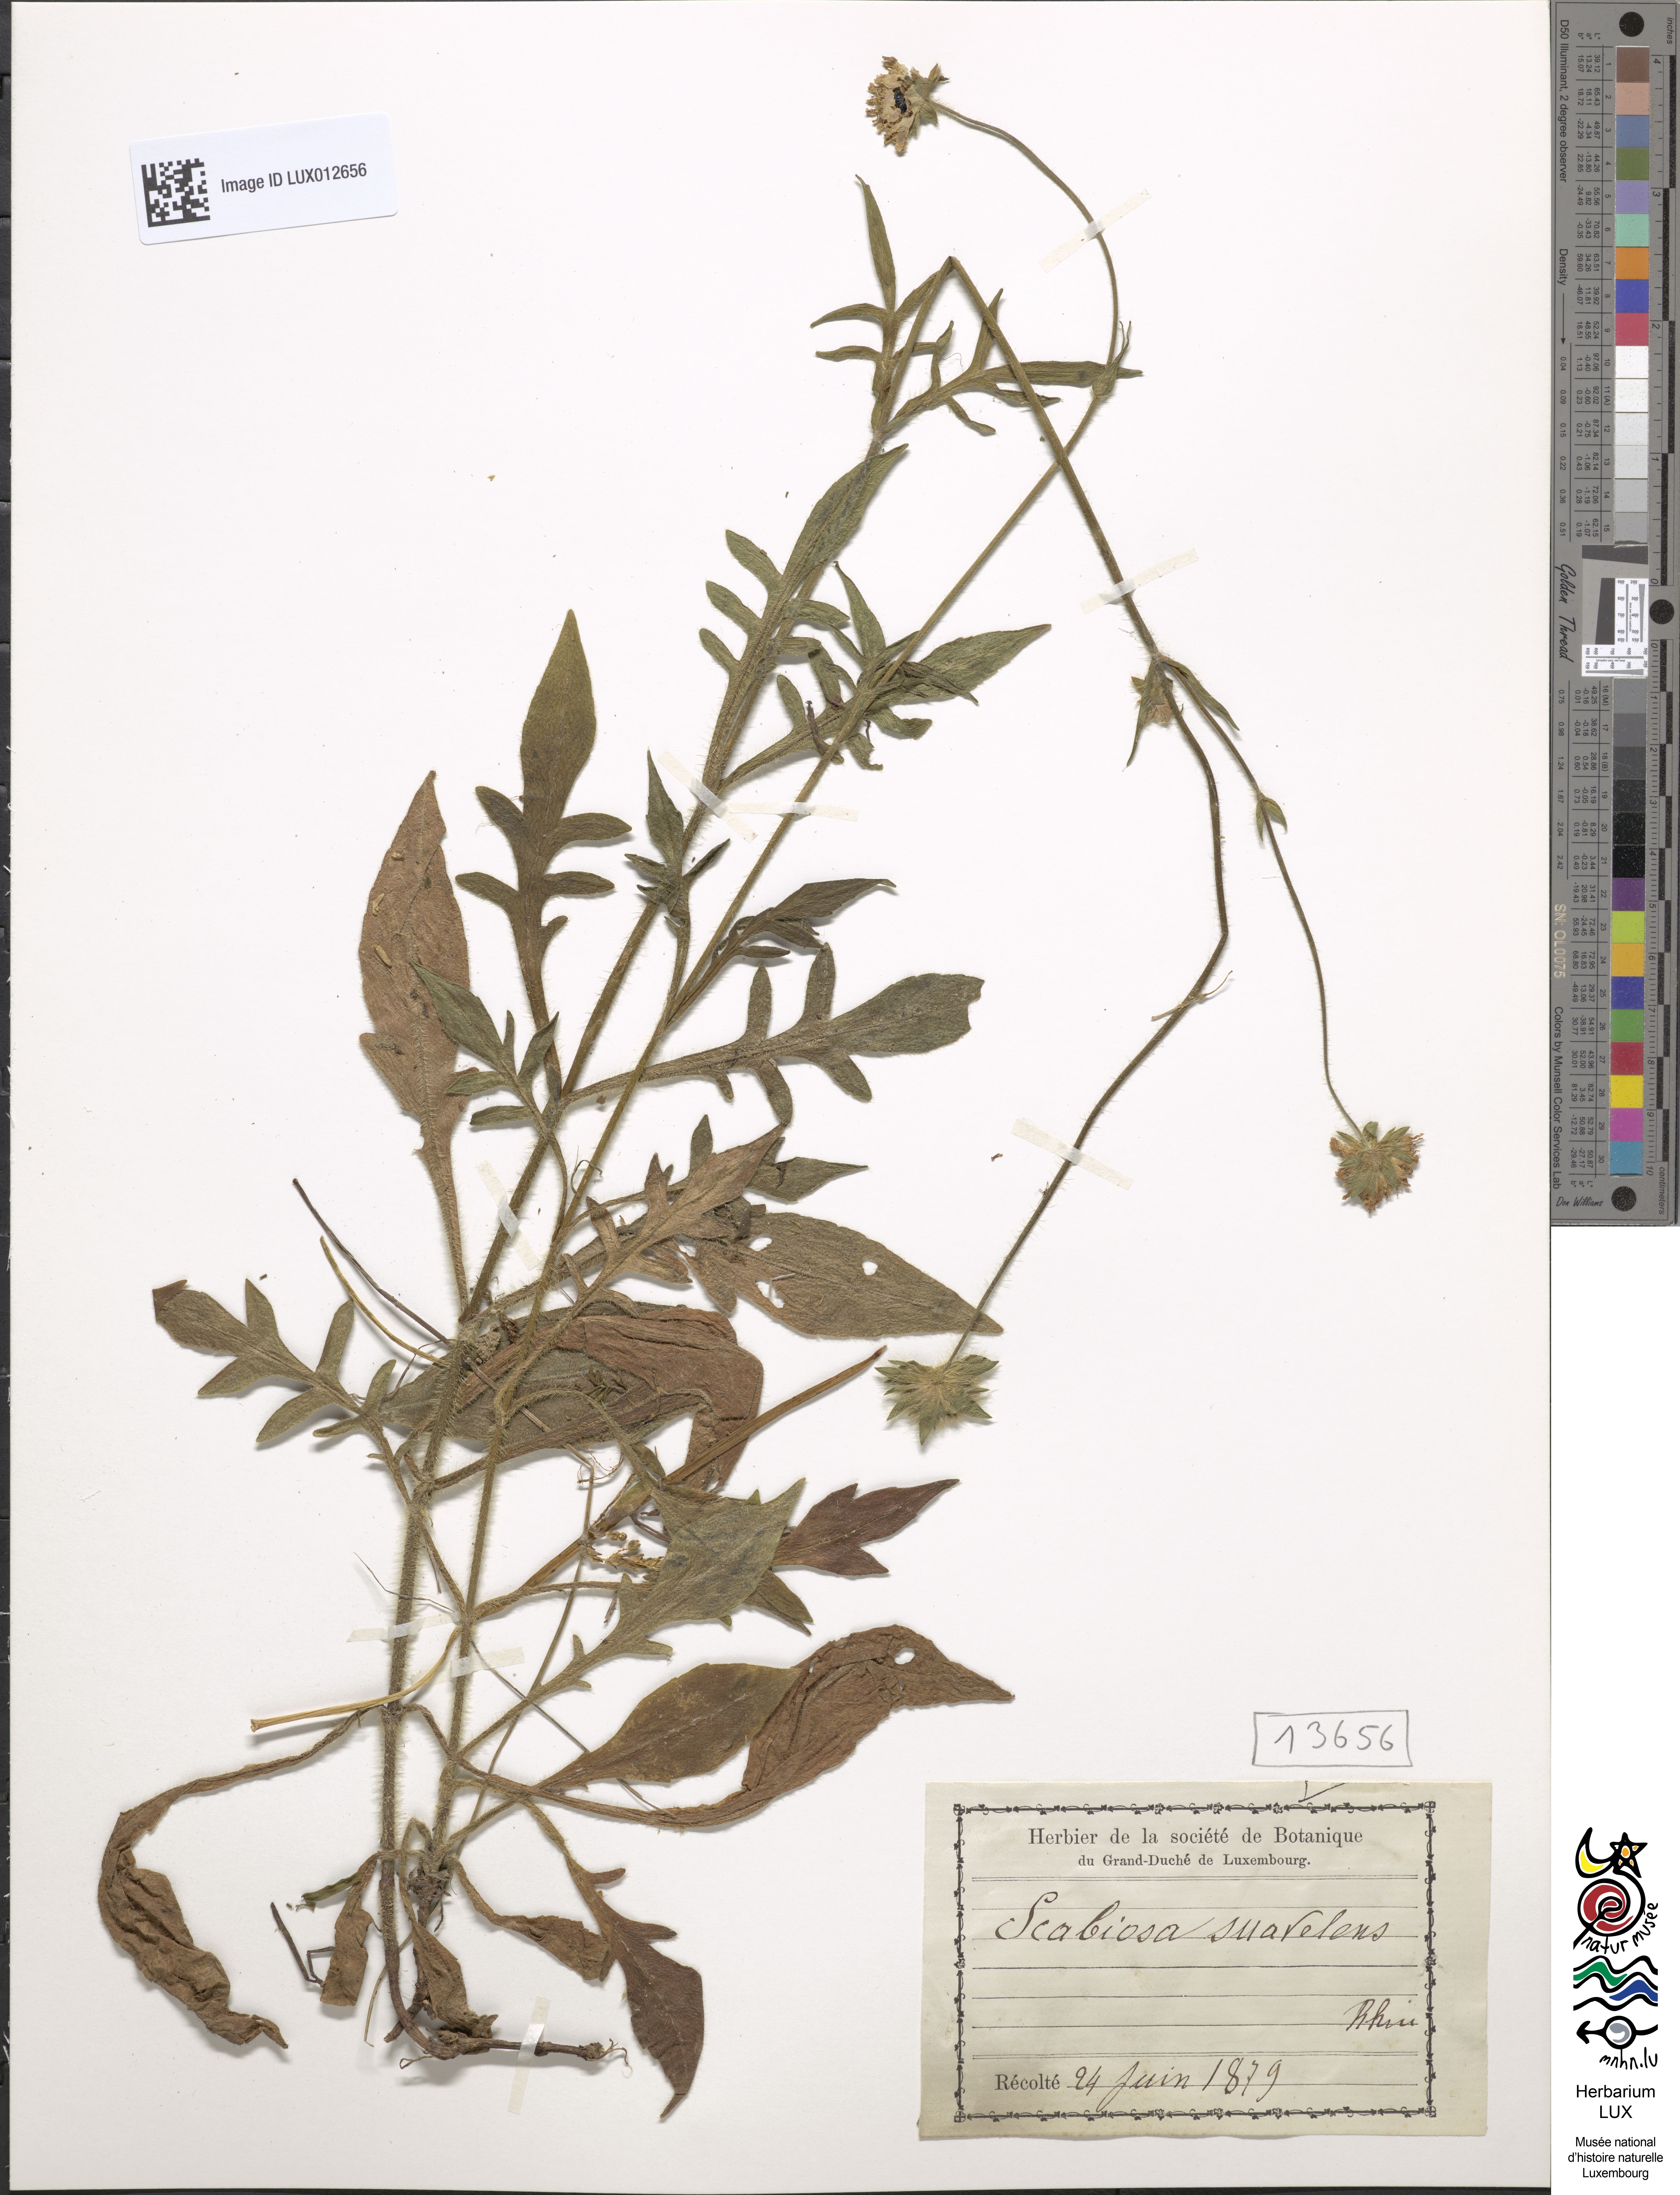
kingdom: Plantae
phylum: Tracheophyta
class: Magnoliopsida
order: Dipsacales
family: Caprifoliaceae
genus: Scabiosa
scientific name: Scabiosa canescens
